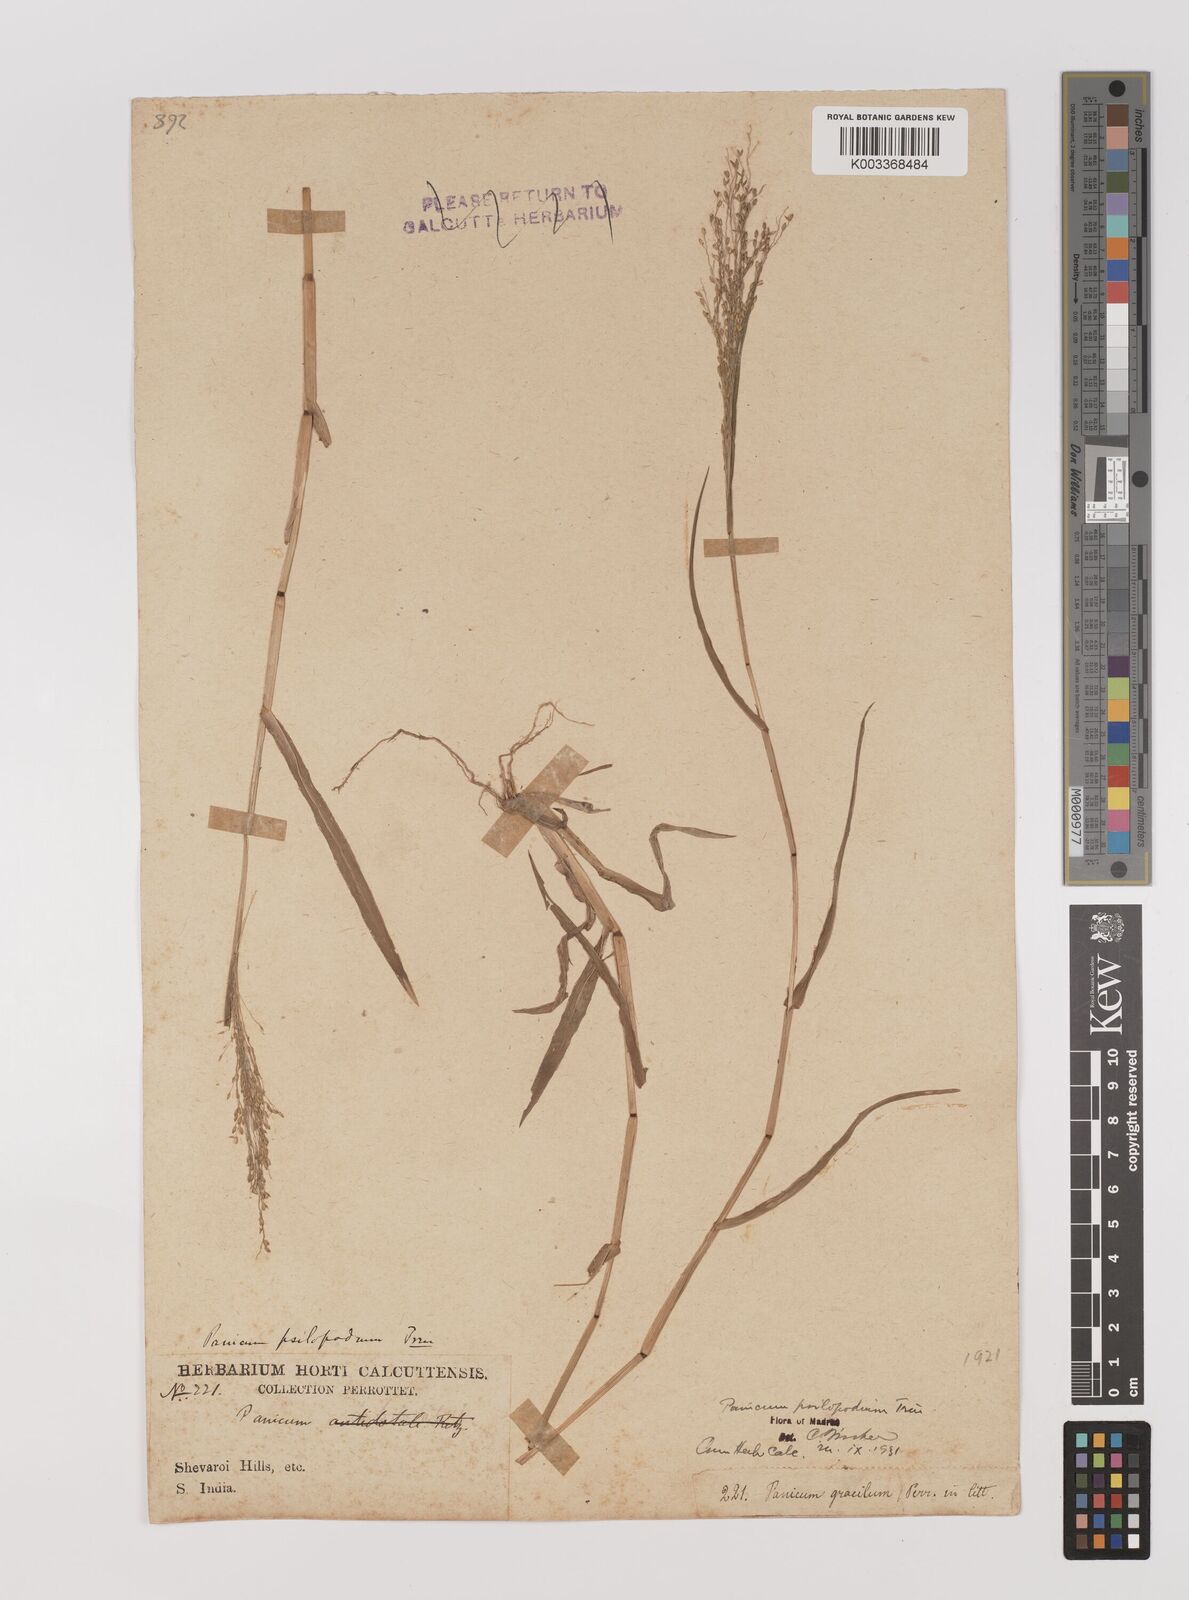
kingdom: Plantae
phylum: Tracheophyta
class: Liliopsida
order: Poales
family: Poaceae
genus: Panicum
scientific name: Panicum sumatrense
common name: Little millet
